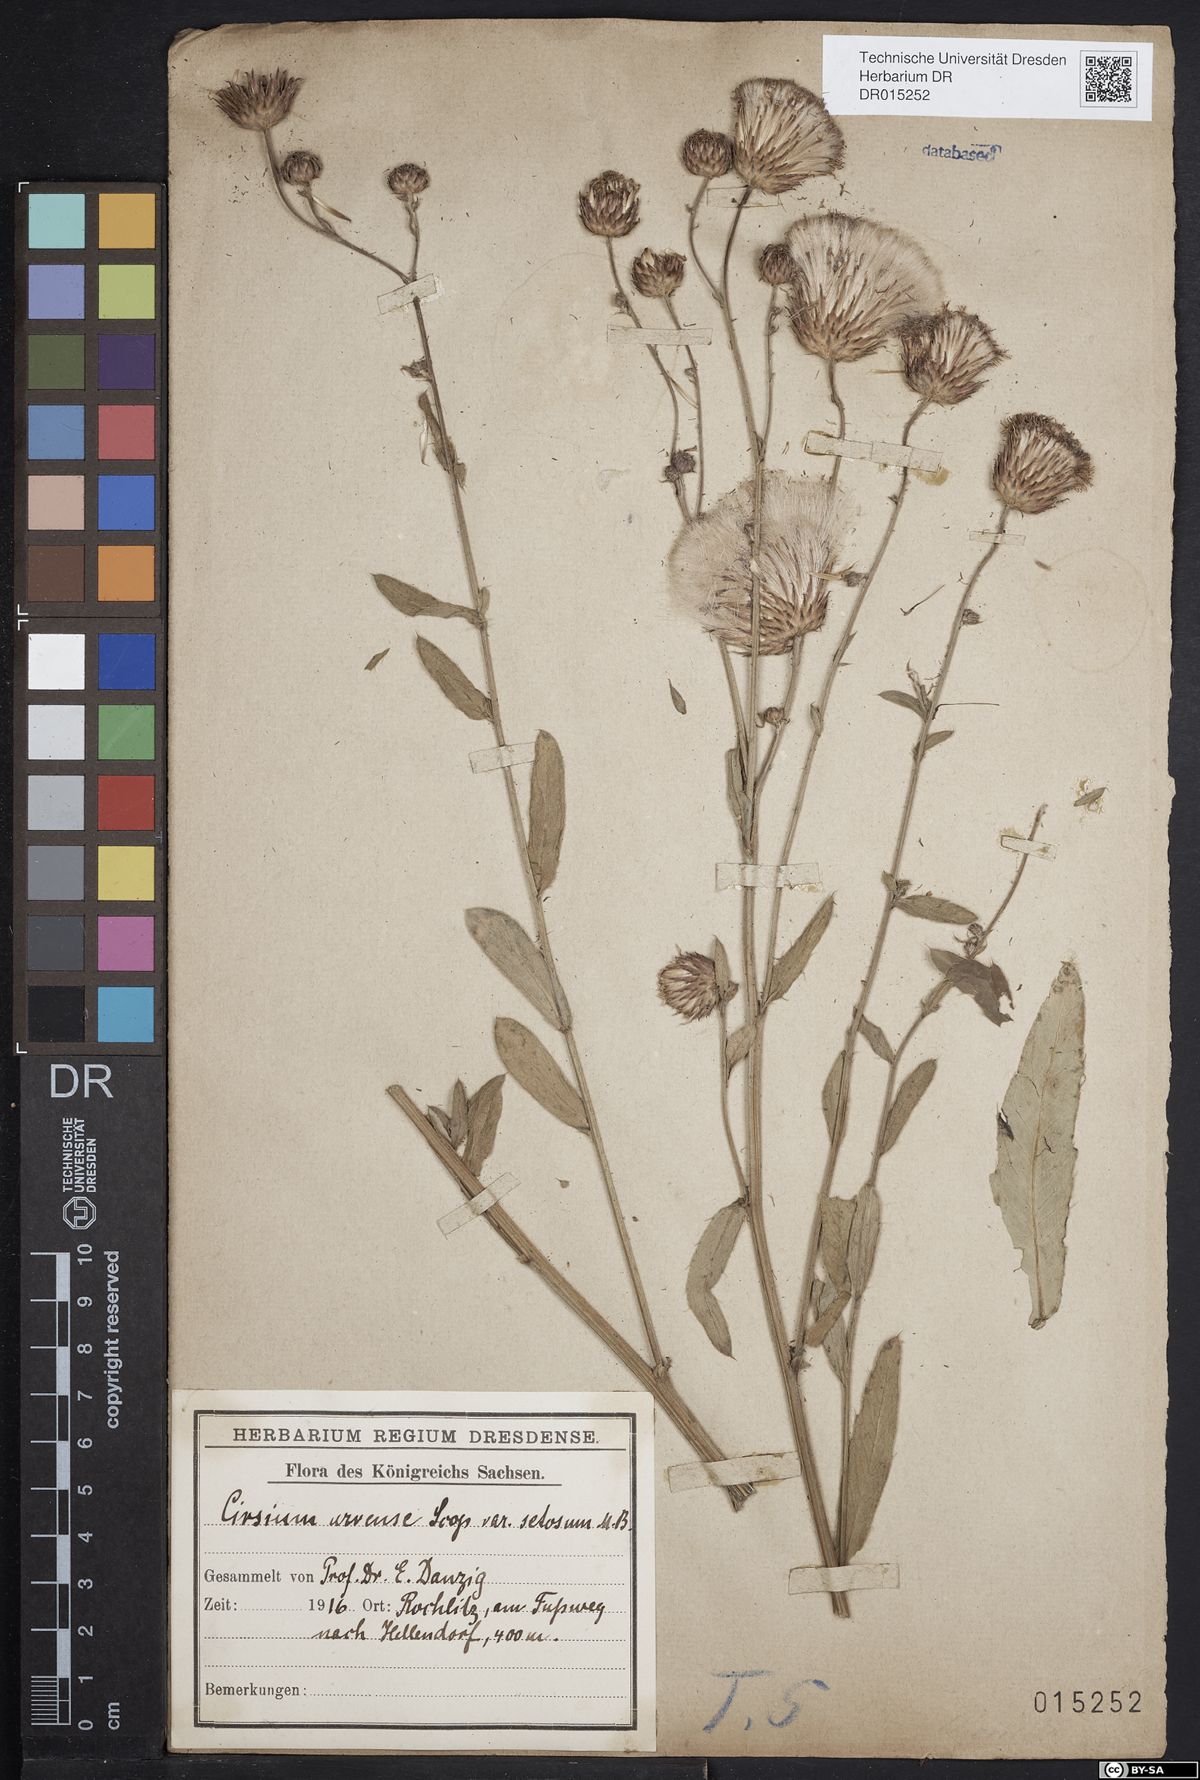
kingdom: Plantae
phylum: Tracheophyta
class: Magnoliopsida
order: Asterales
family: Asteraceae
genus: Cirsium
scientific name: Cirsium arvense
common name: Creeping thistle
